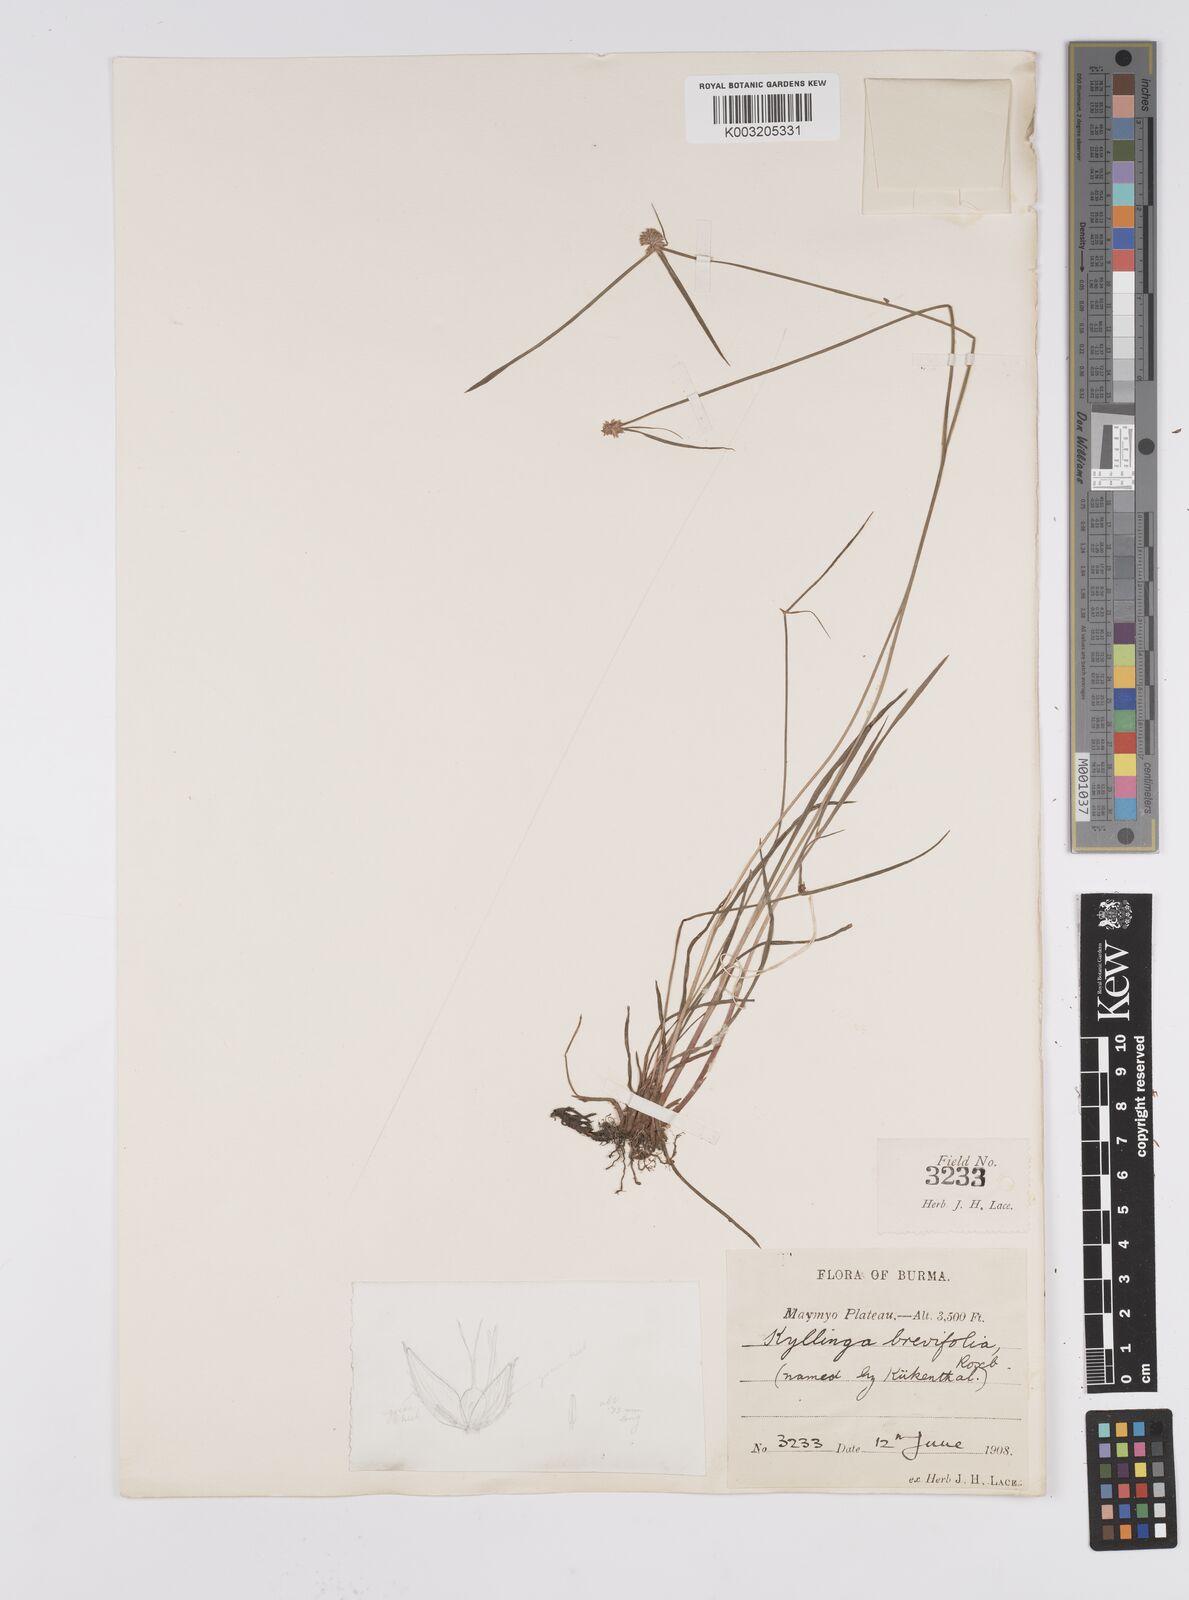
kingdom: Plantae
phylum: Tracheophyta
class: Liliopsida
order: Poales
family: Cyperaceae
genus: Cyperus
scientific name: Cyperus brevifolius
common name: Globe kyllinga
